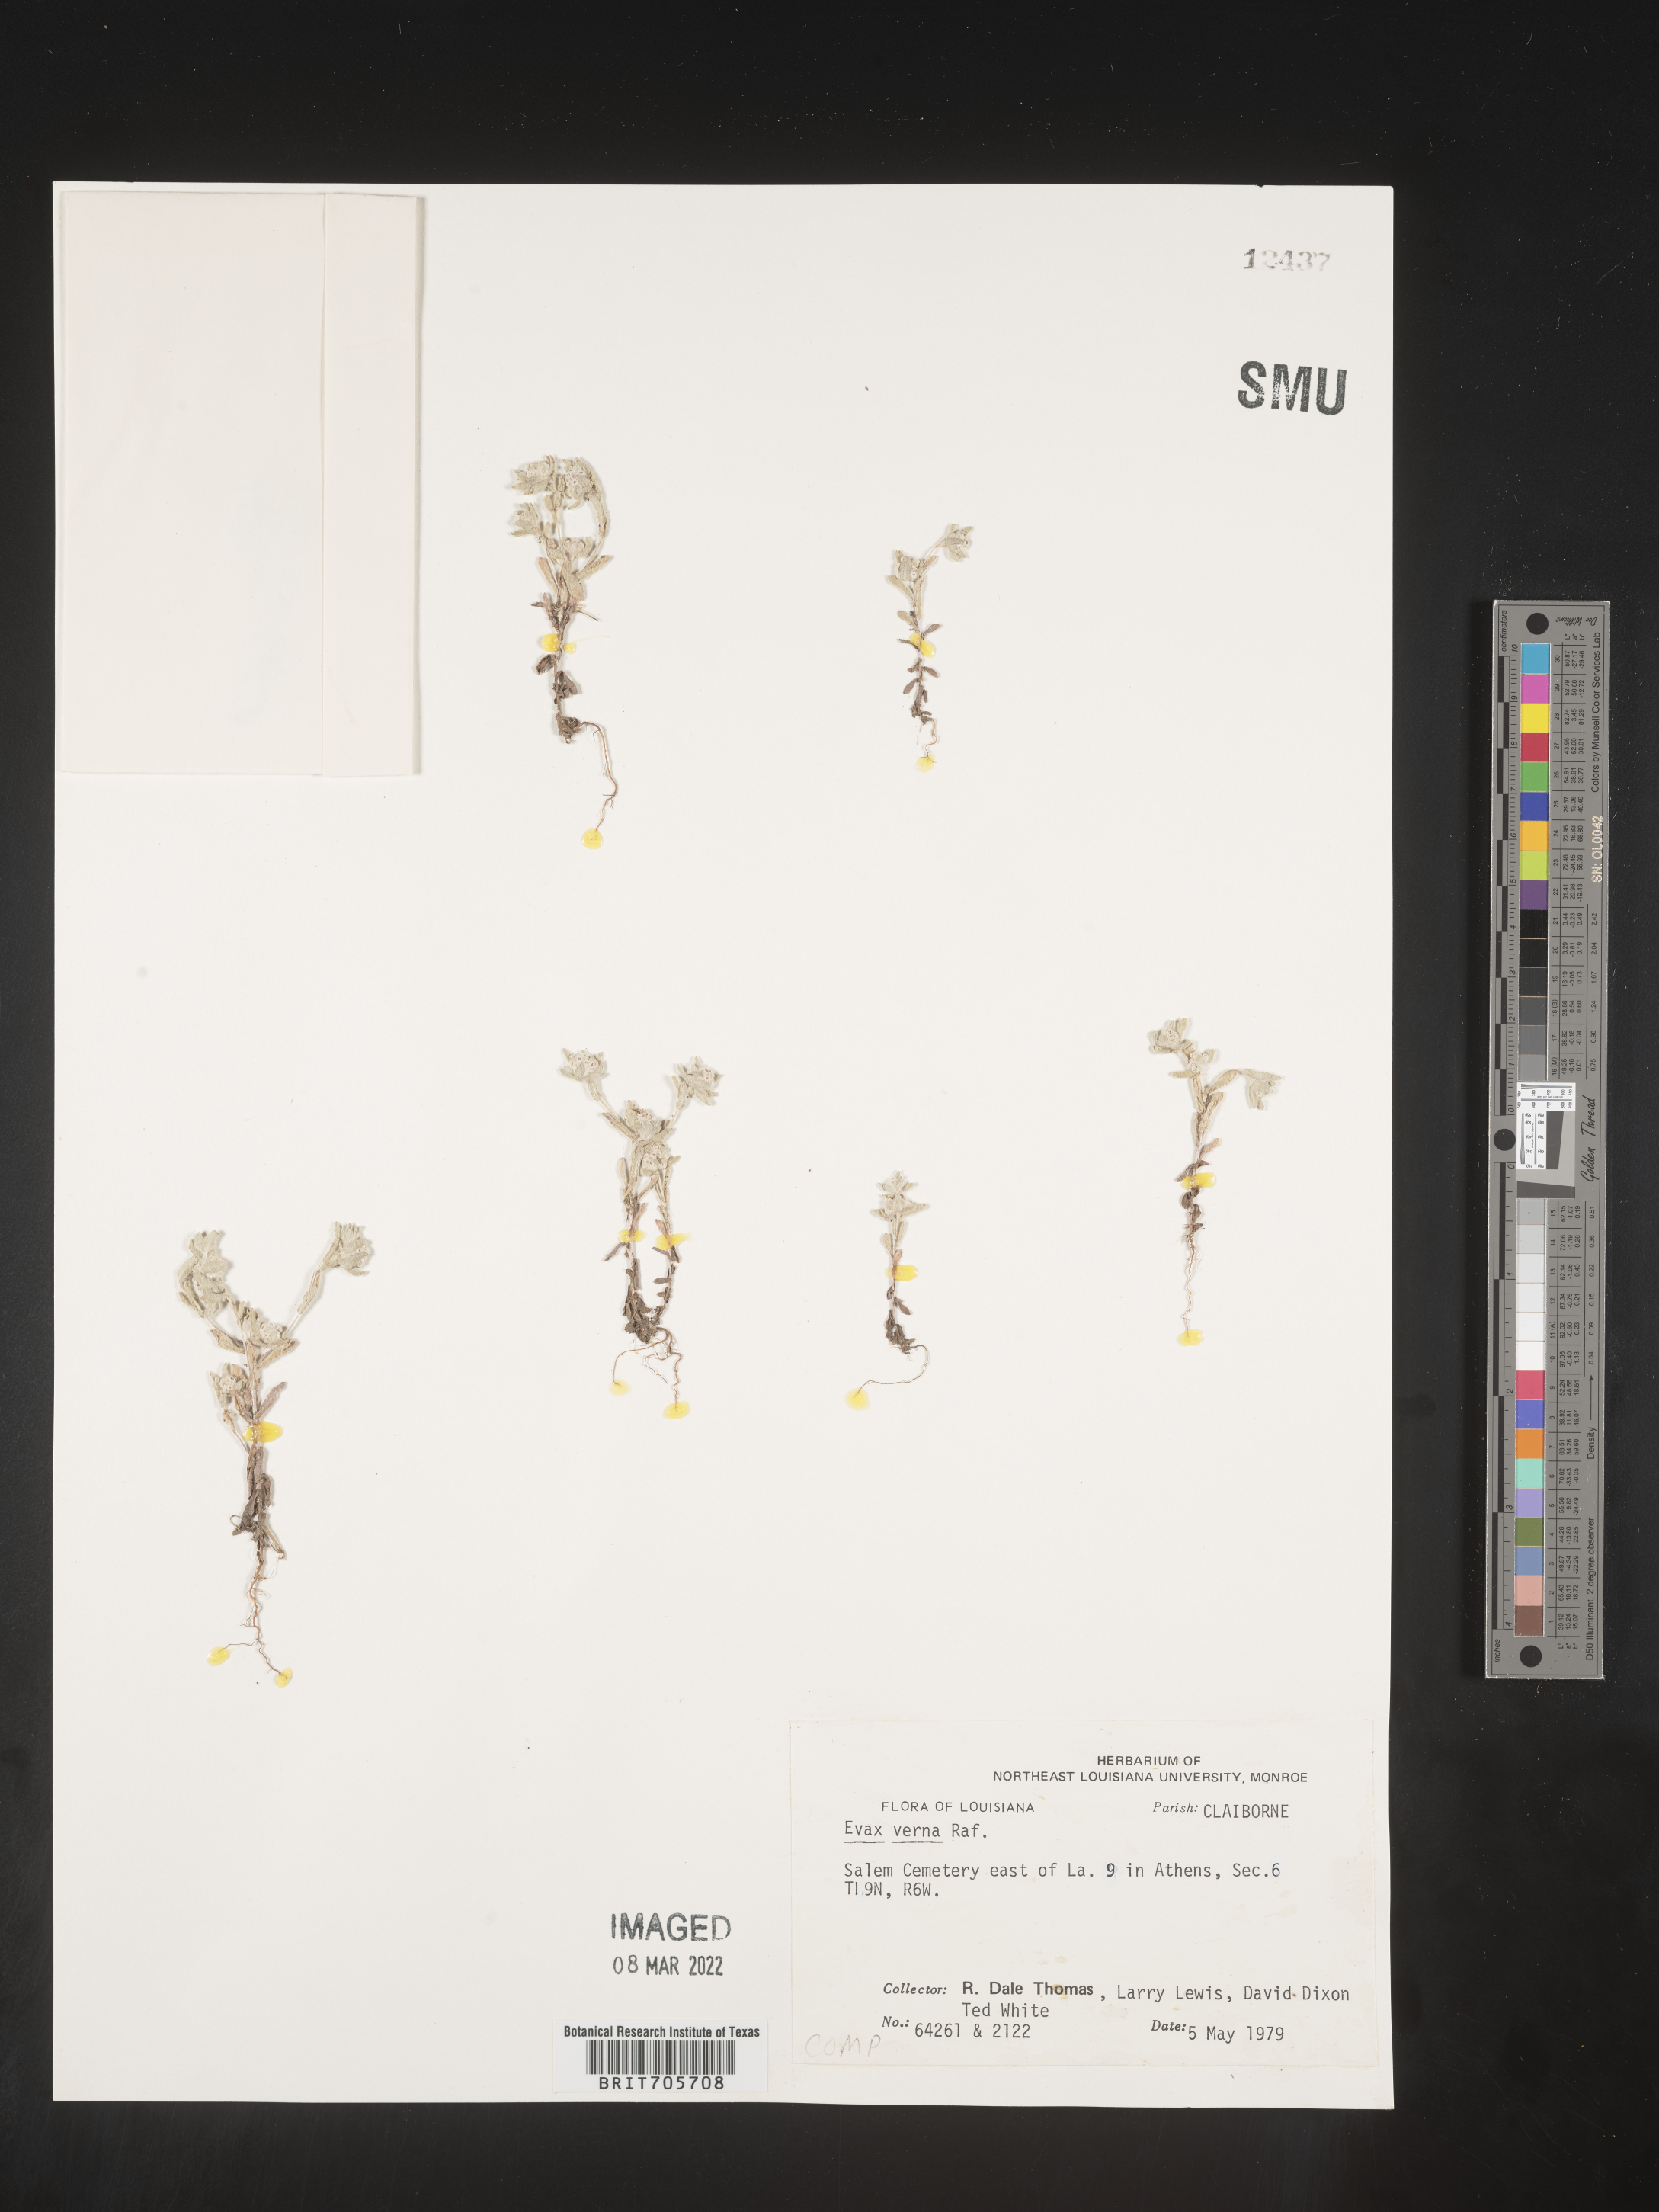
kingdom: Plantae
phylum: Tracheophyta
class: Magnoliopsida
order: Asterales
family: Asteraceae
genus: Diaperia
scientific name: Diaperia verna
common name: Many-stem rabbit-tobacco
